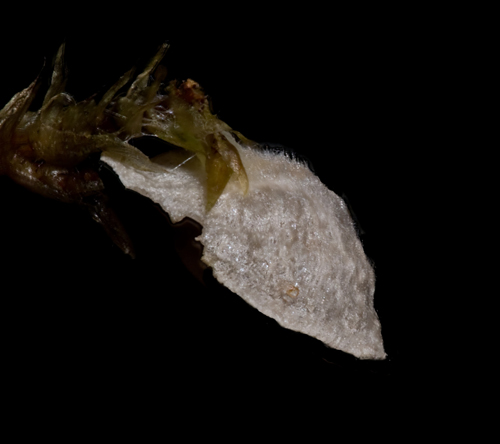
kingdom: Fungi
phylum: Basidiomycota
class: Agaricomycetes
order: Agaricales
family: Hygrophoraceae
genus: Arrhenia
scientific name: Arrhenia retiruga
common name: lille fontænehat
